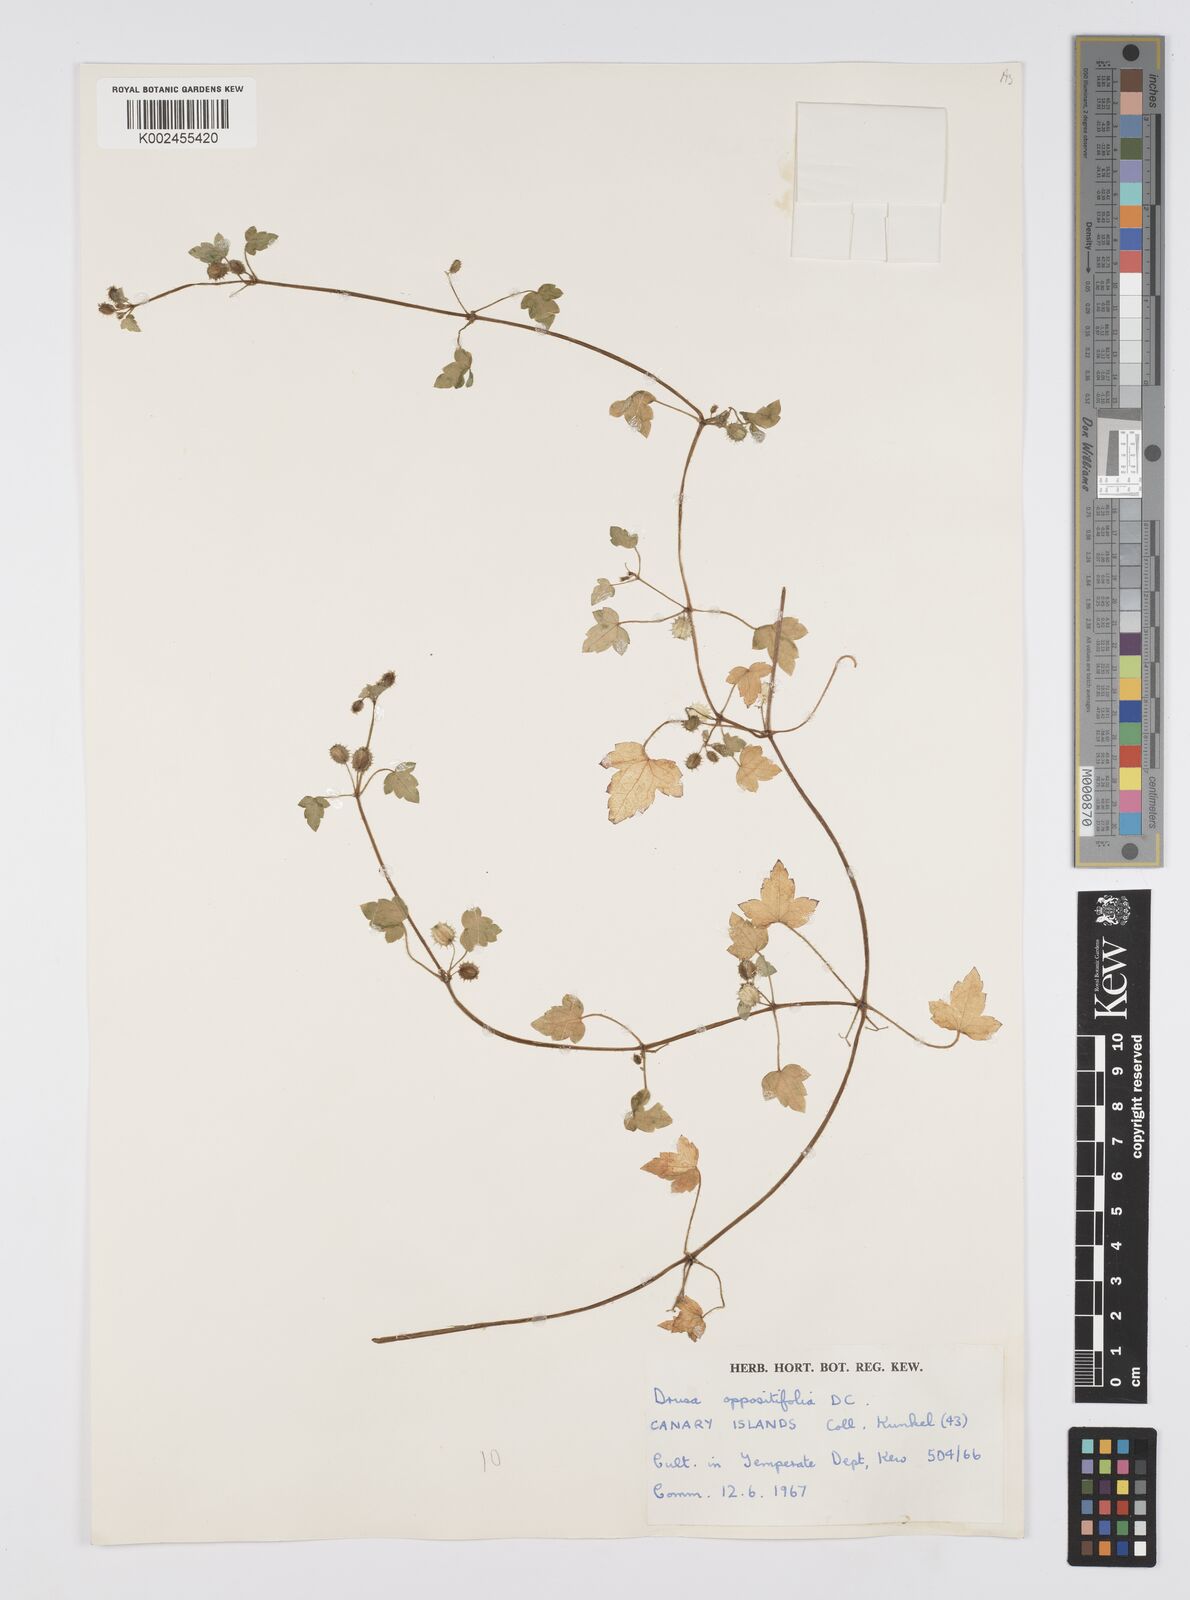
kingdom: Plantae
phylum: Tracheophyta
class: Magnoliopsida
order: Apiales
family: Apiaceae
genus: Drusa
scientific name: Drusa glandulosa
